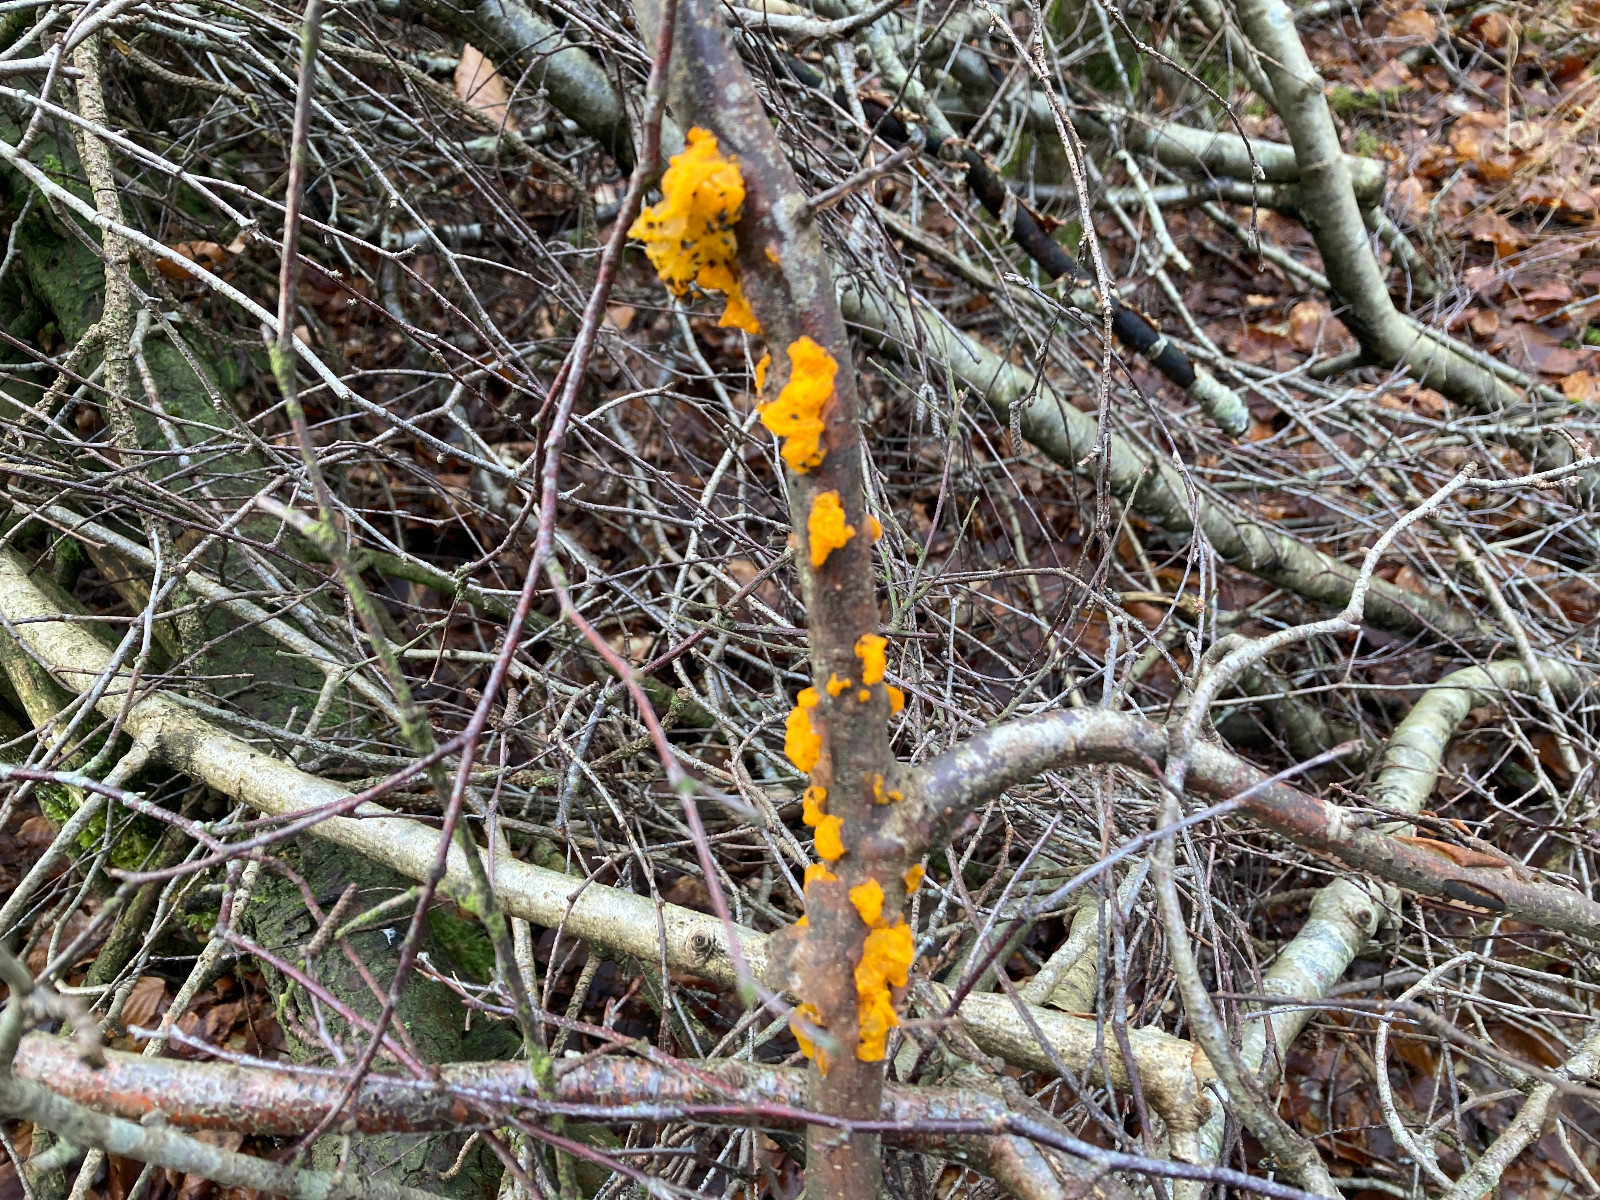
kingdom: Fungi
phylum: Basidiomycota
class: Tremellomycetes
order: Tremellales
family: Tremellaceae
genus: Tremella
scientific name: Tremella mesenterica
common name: gul bævresvamp
